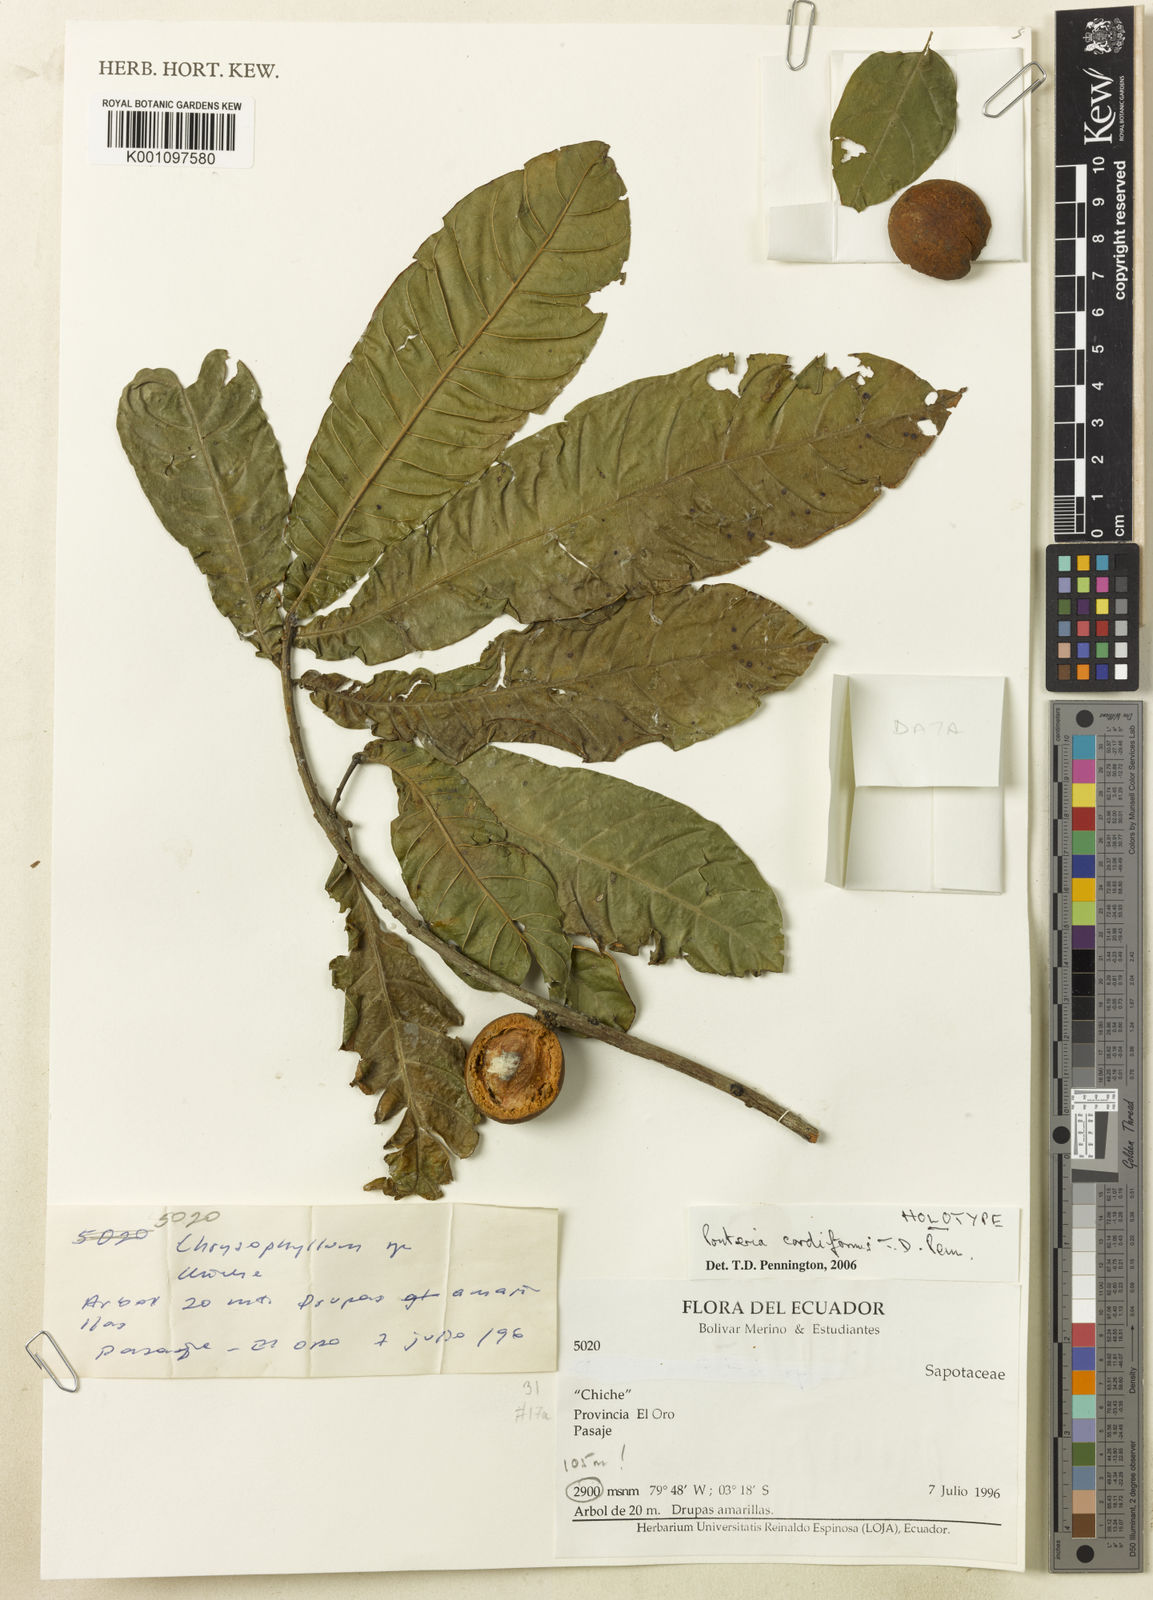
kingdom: Plantae
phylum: Tracheophyta
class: Magnoliopsida
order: Ericales
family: Sapotaceae
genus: Pouteria
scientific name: Pouteria cordiformis
